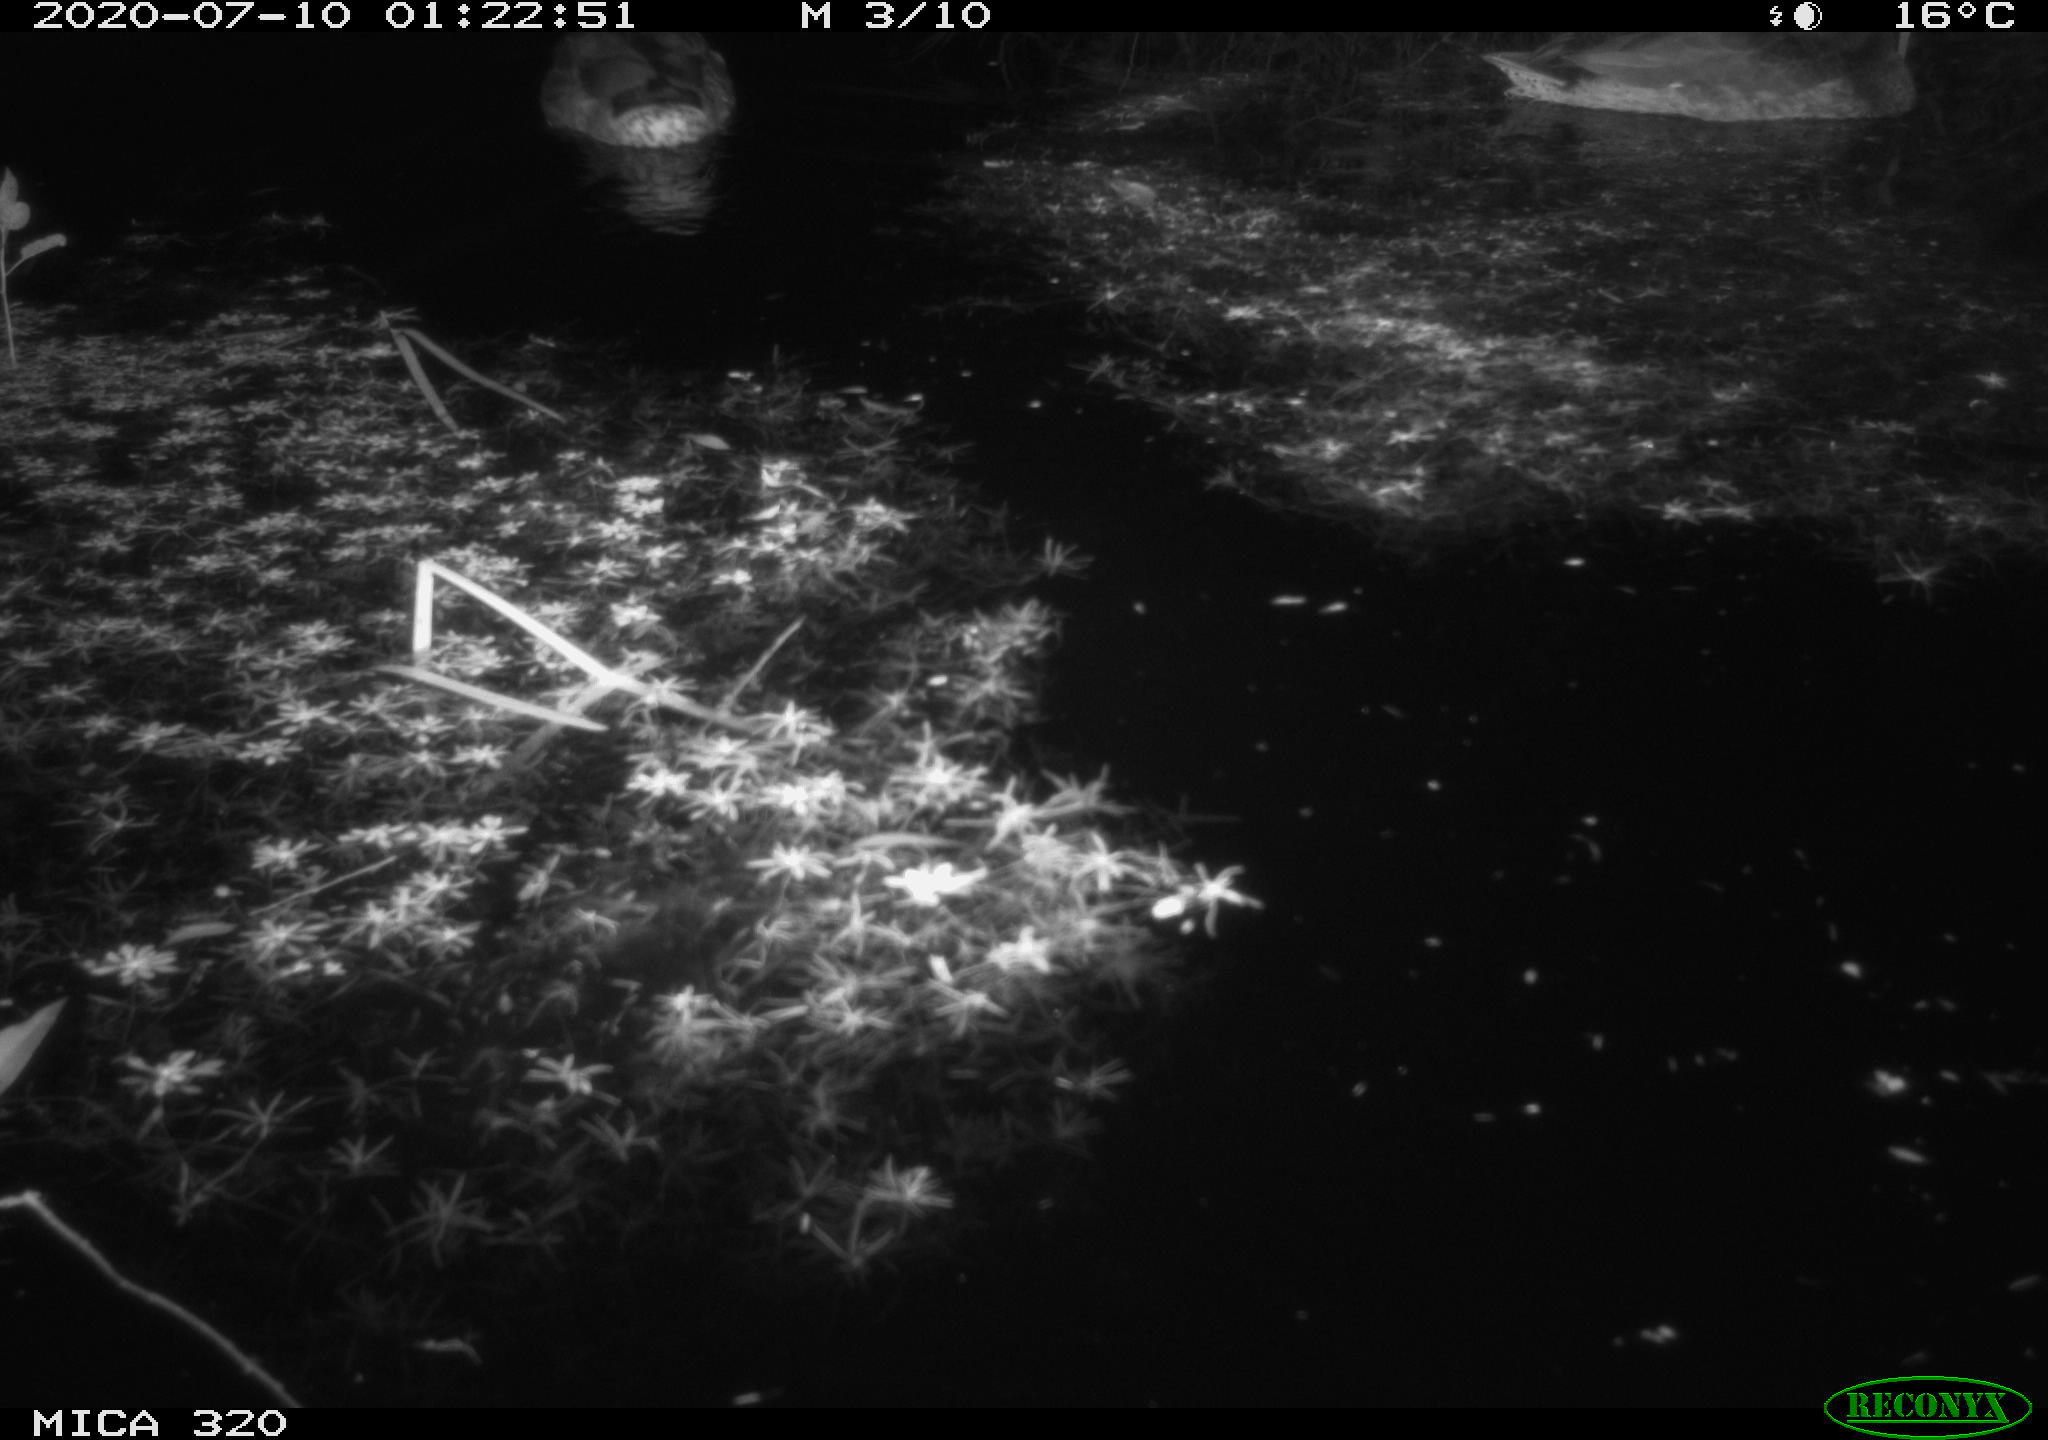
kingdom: Animalia
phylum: Chordata
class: Aves
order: Anseriformes
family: Anatidae
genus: Anas
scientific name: Anas platyrhynchos
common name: Mallard
